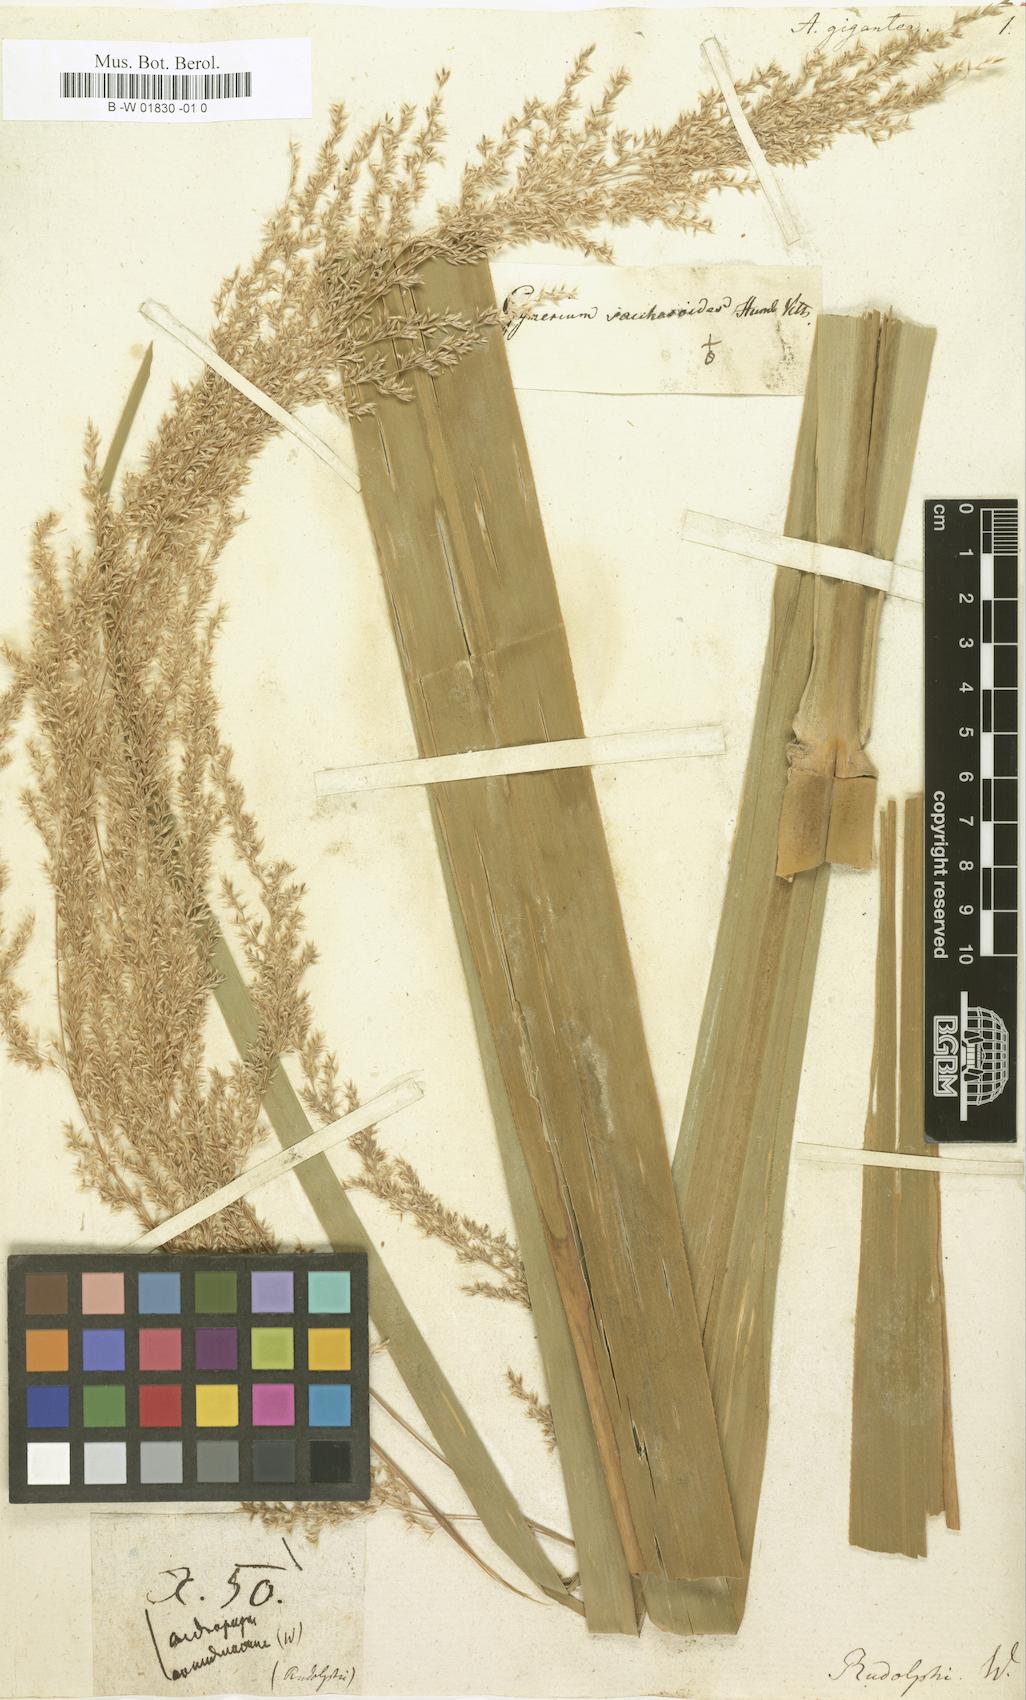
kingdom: Plantae
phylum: Tracheophyta
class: Liliopsida
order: Poales
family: Poaceae
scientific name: Poaceae
